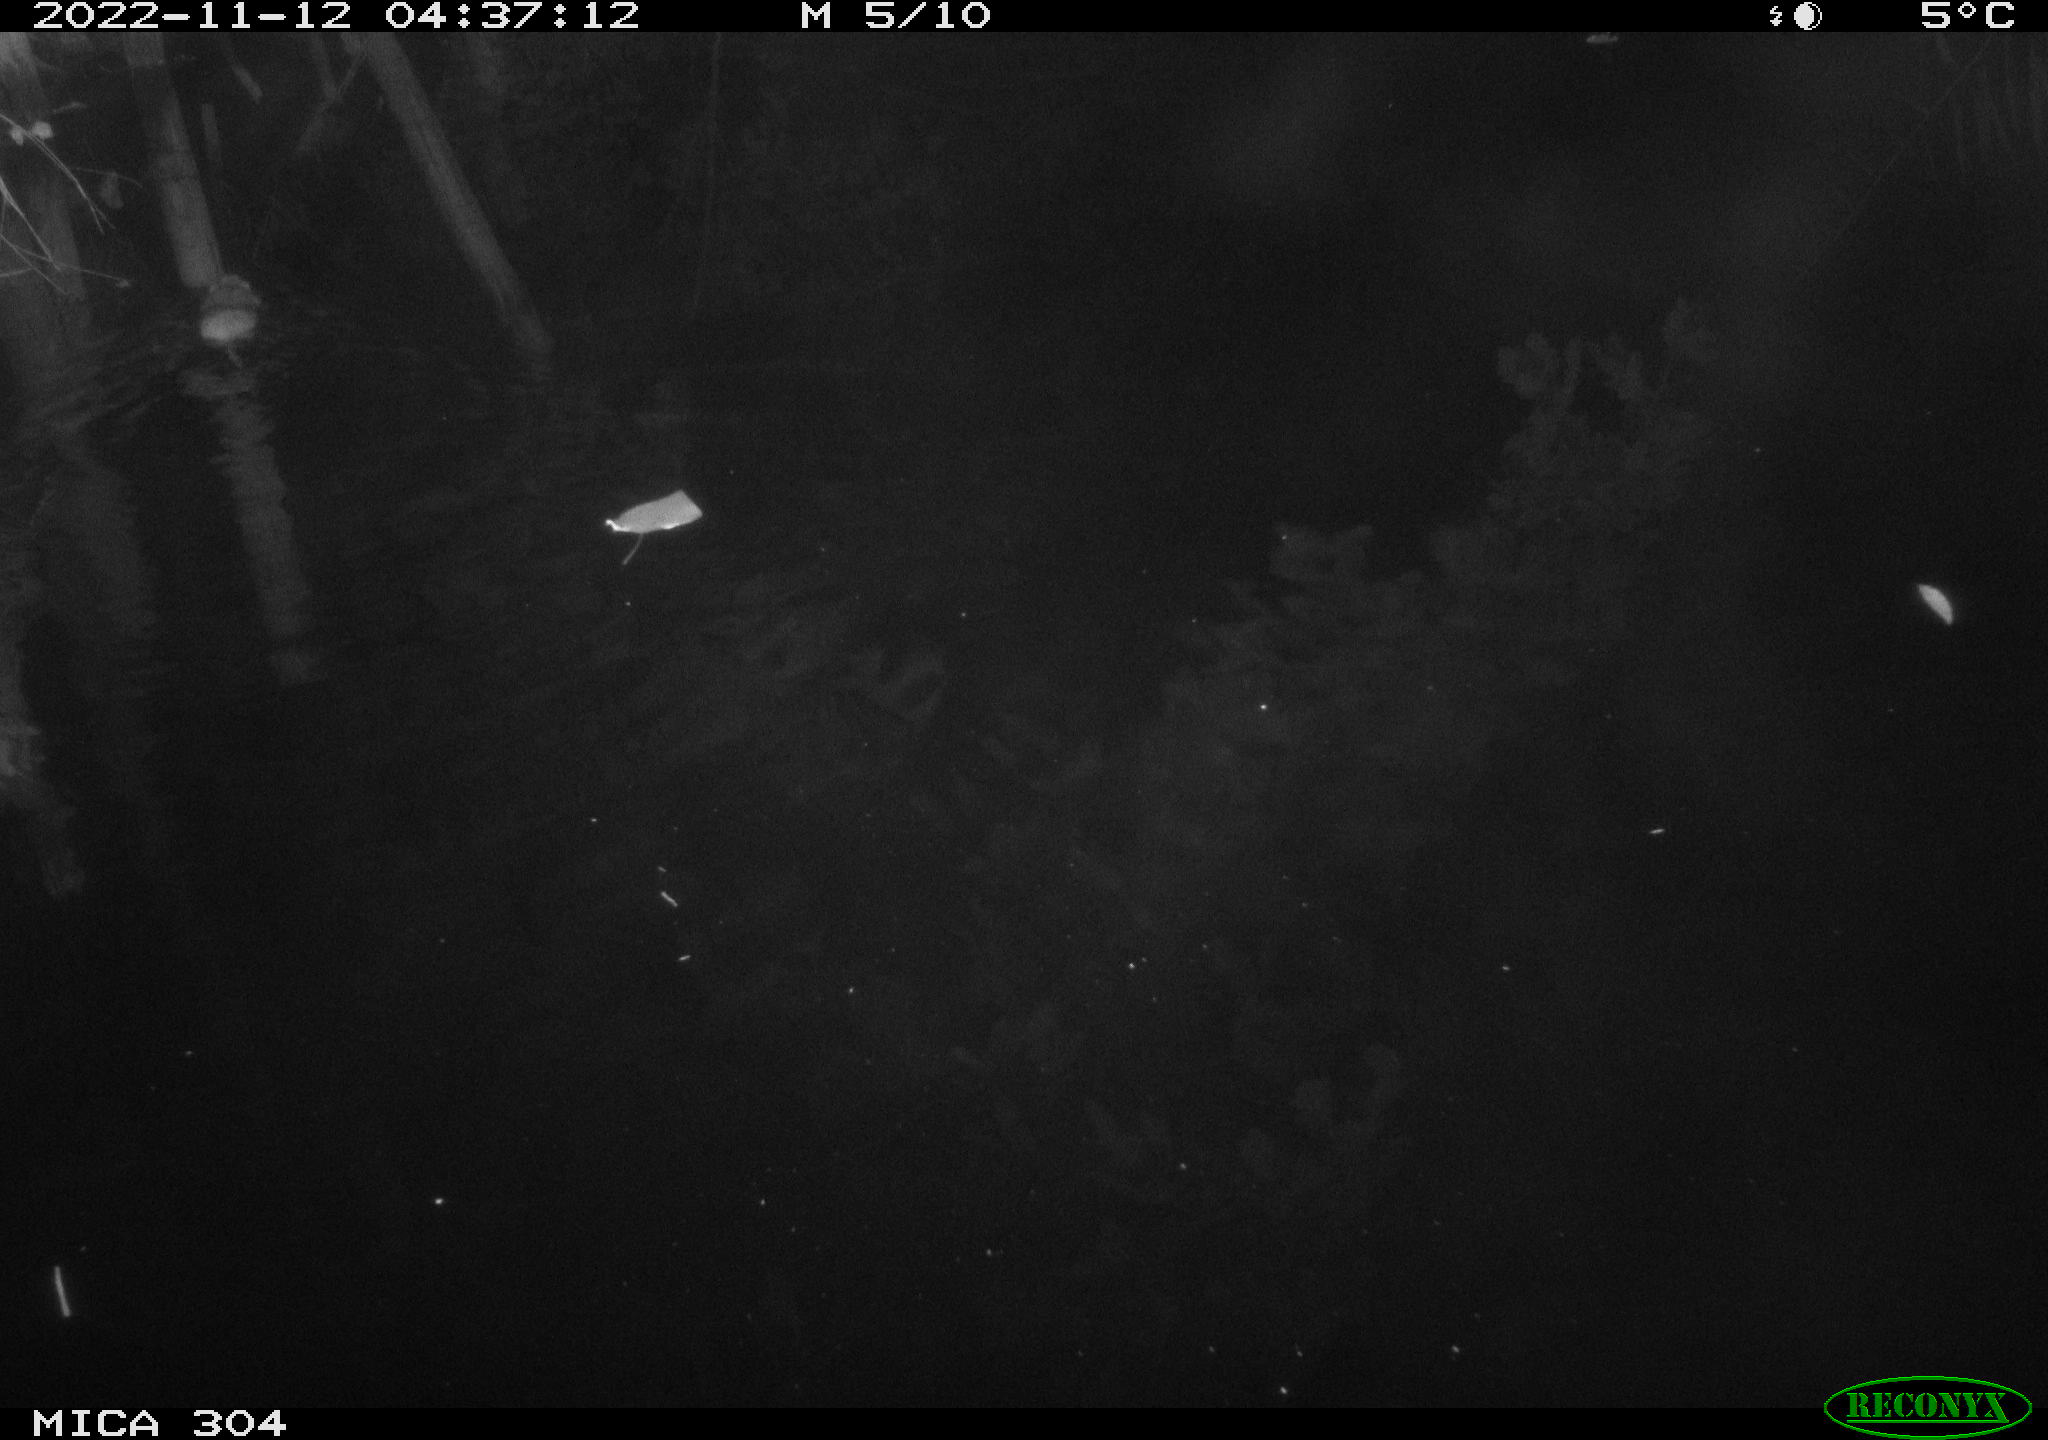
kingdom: Animalia
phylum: Chordata
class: Mammalia
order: Rodentia
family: Muridae
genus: Rattus
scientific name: Rattus norvegicus
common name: Brown rat
